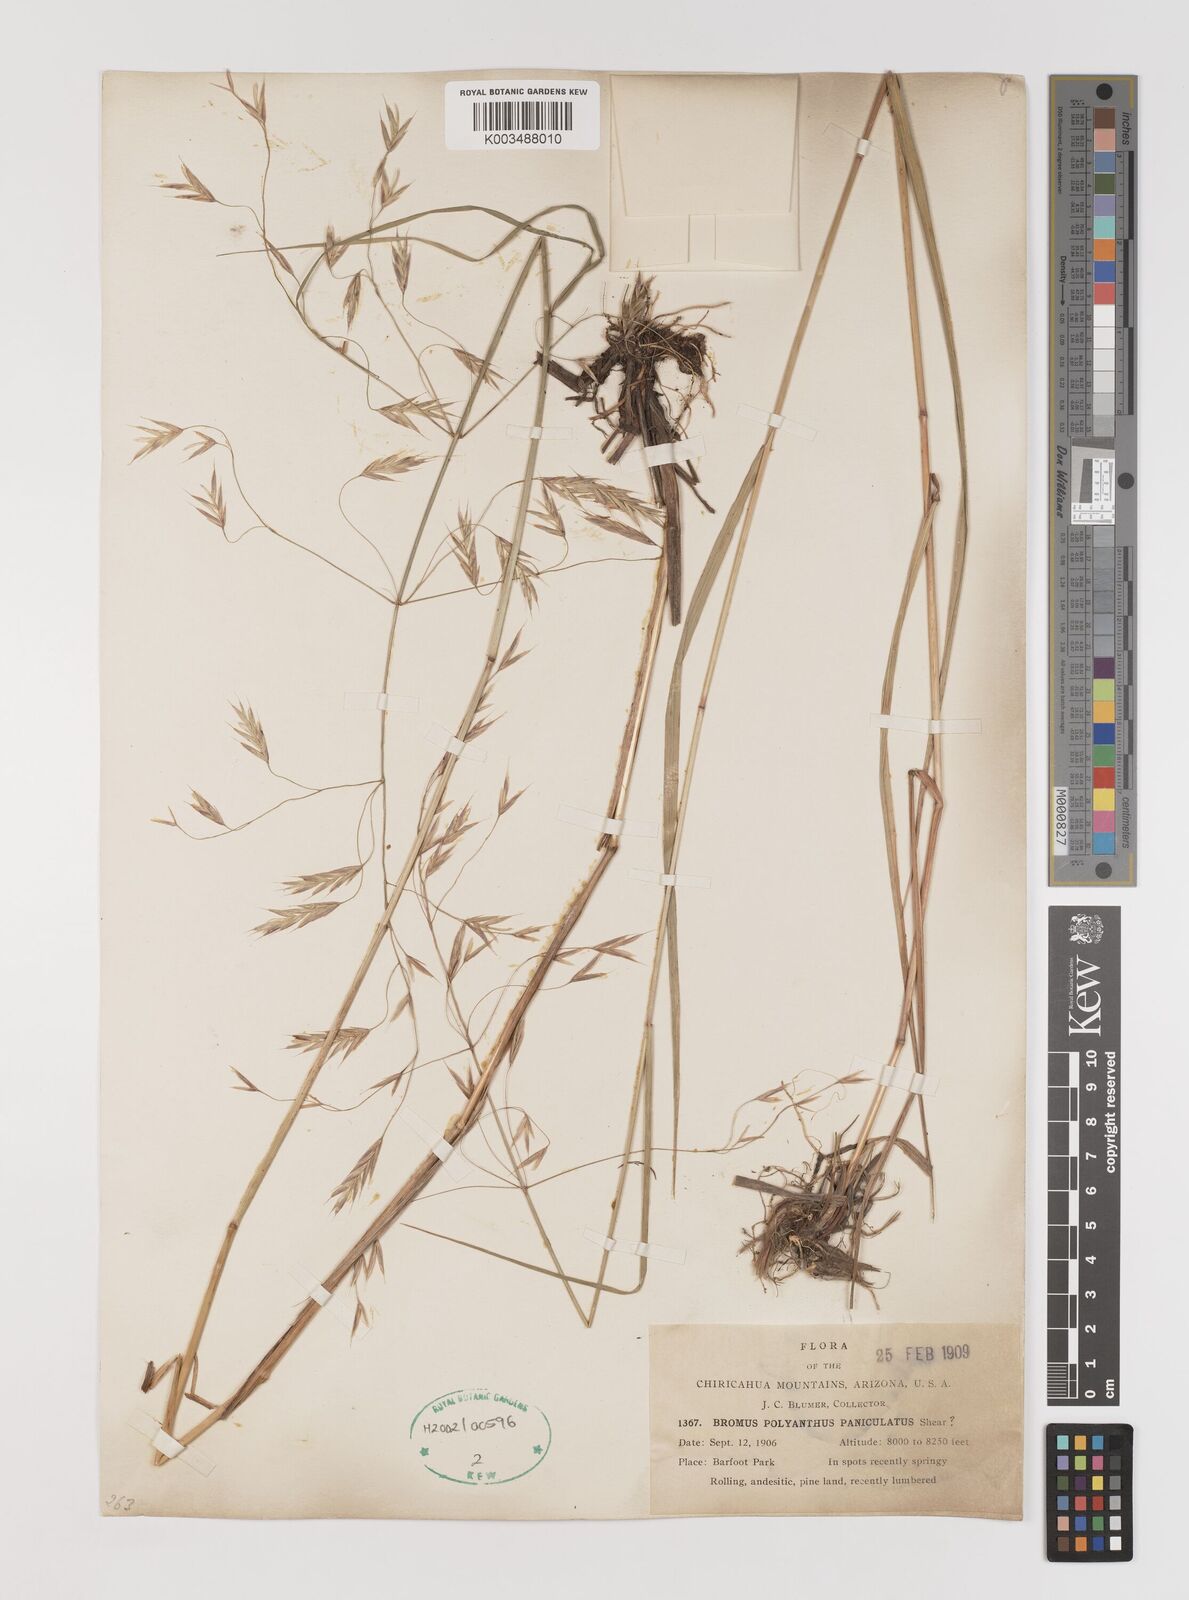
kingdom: Plantae
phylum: Tracheophyta
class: Liliopsida
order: Poales
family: Poaceae
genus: Bromus
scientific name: Bromus polyanthus
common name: Great basin brome
